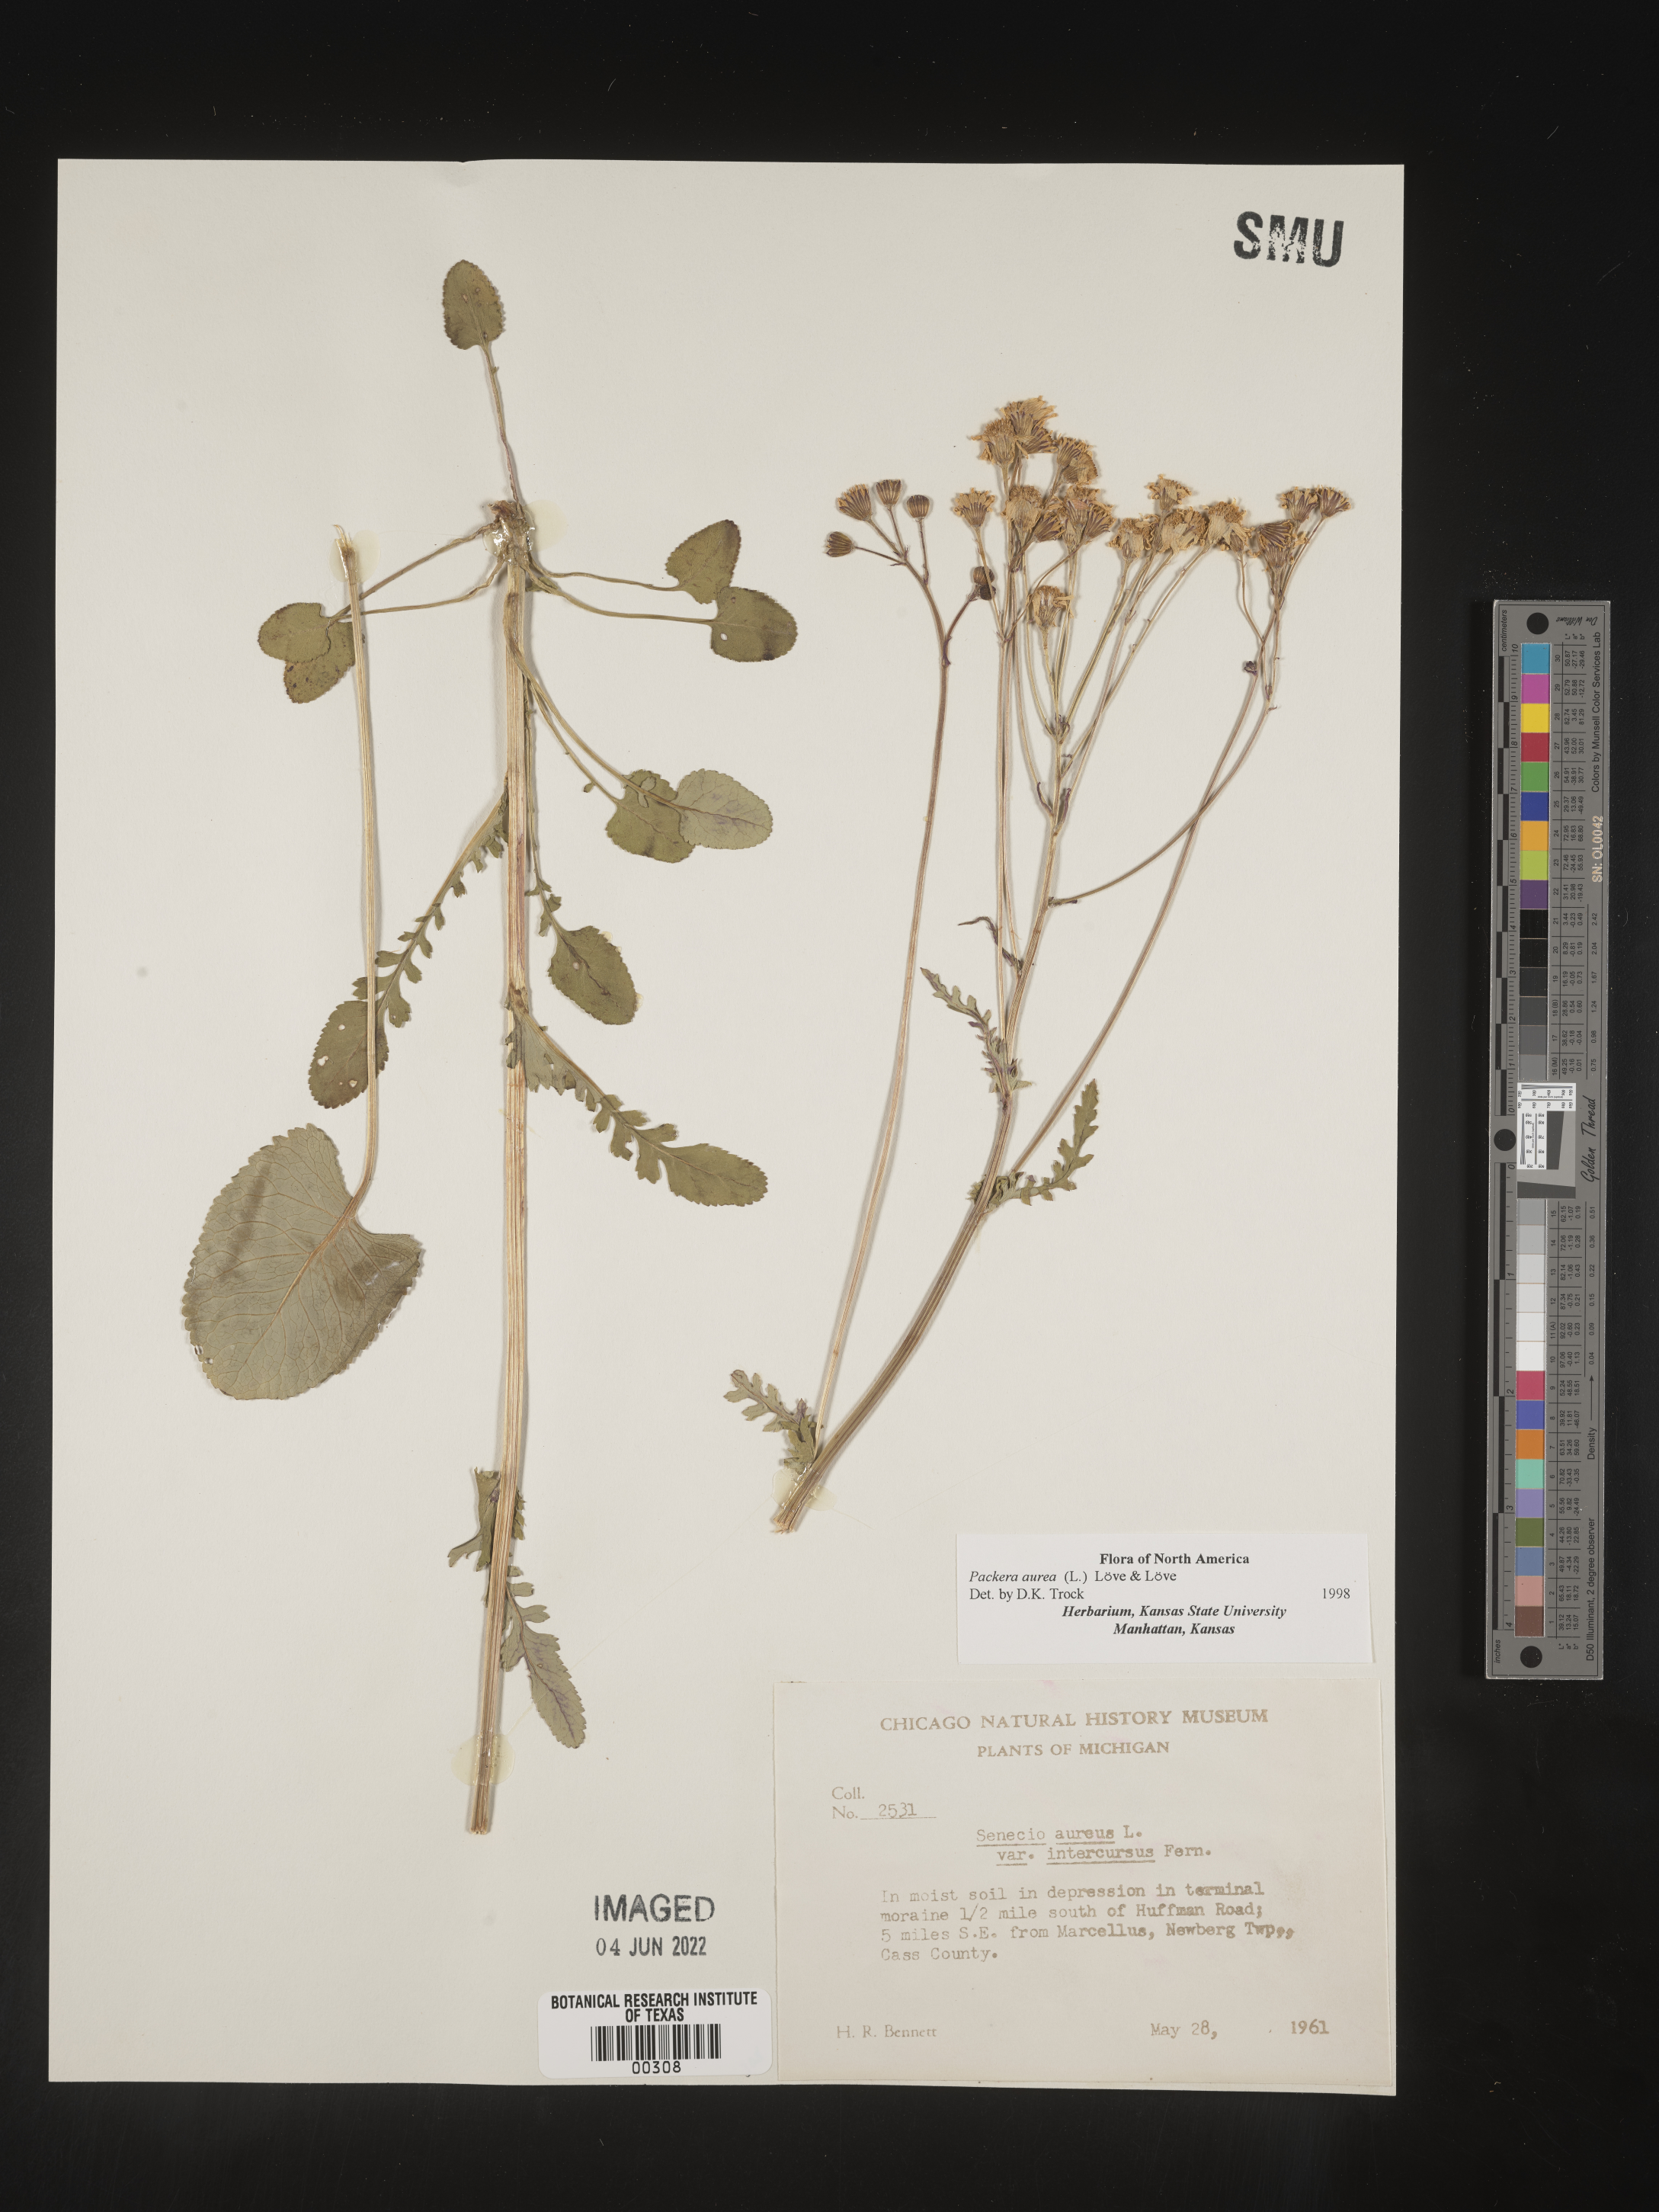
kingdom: Plantae
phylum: Tracheophyta
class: Magnoliopsida
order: Asterales
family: Asteraceae
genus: Packera
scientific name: Packera aurea
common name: Golden groundsel
